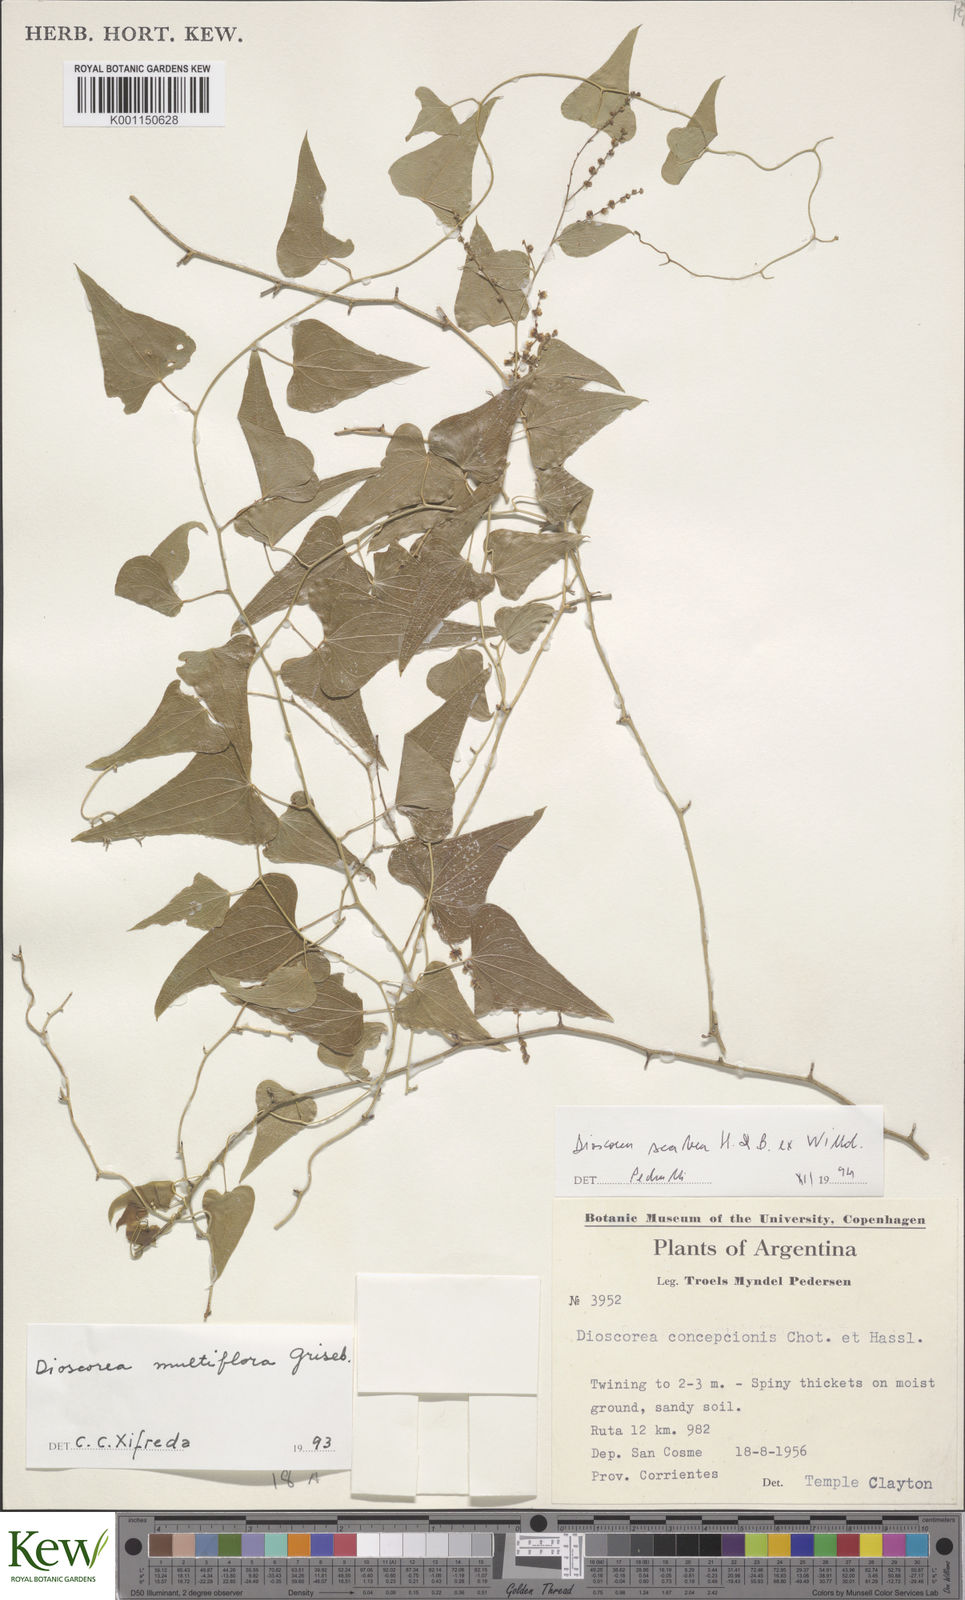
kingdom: Plantae
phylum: Tracheophyta
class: Liliopsida
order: Dioscoreales
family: Dioscoreaceae
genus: Dioscorea
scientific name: Dioscorea scabra
